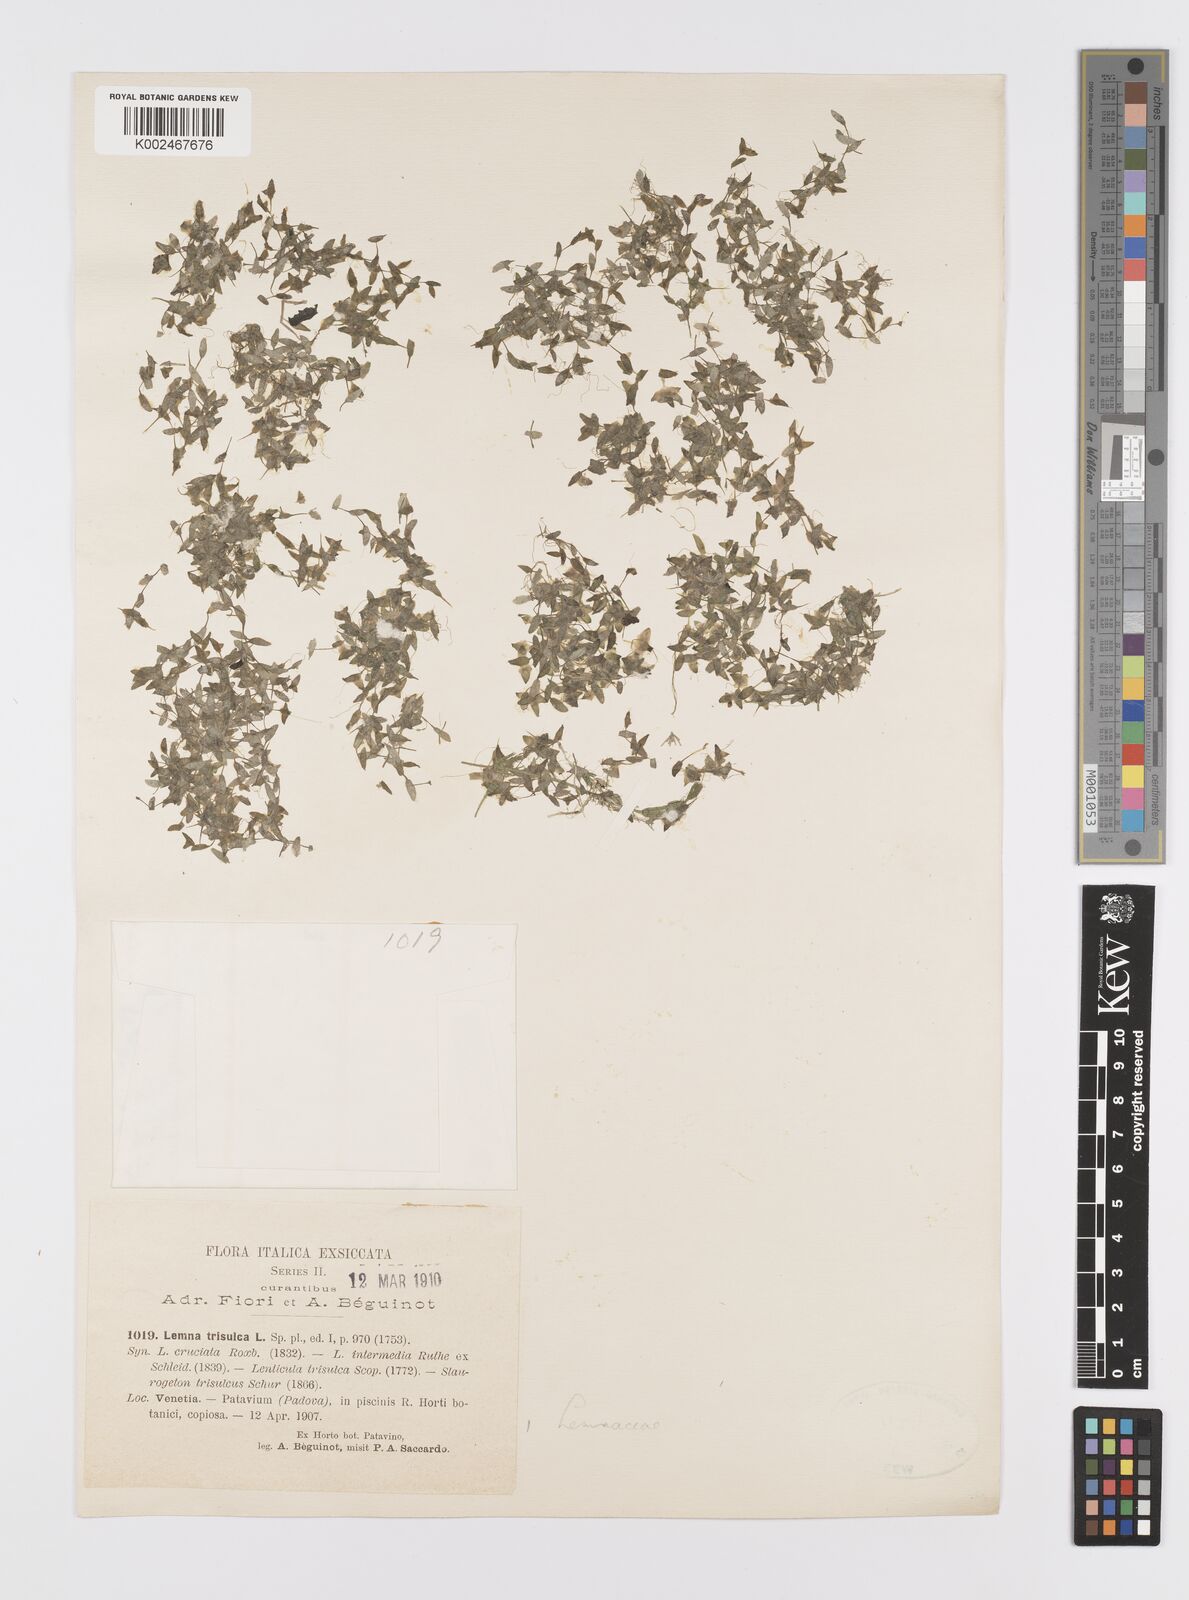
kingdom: Plantae
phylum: Tracheophyta
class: Liliopsida
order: Alismatales
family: Araceae
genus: Lemna
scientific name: Lemna trisulca
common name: Ivy-leaved duckweed
